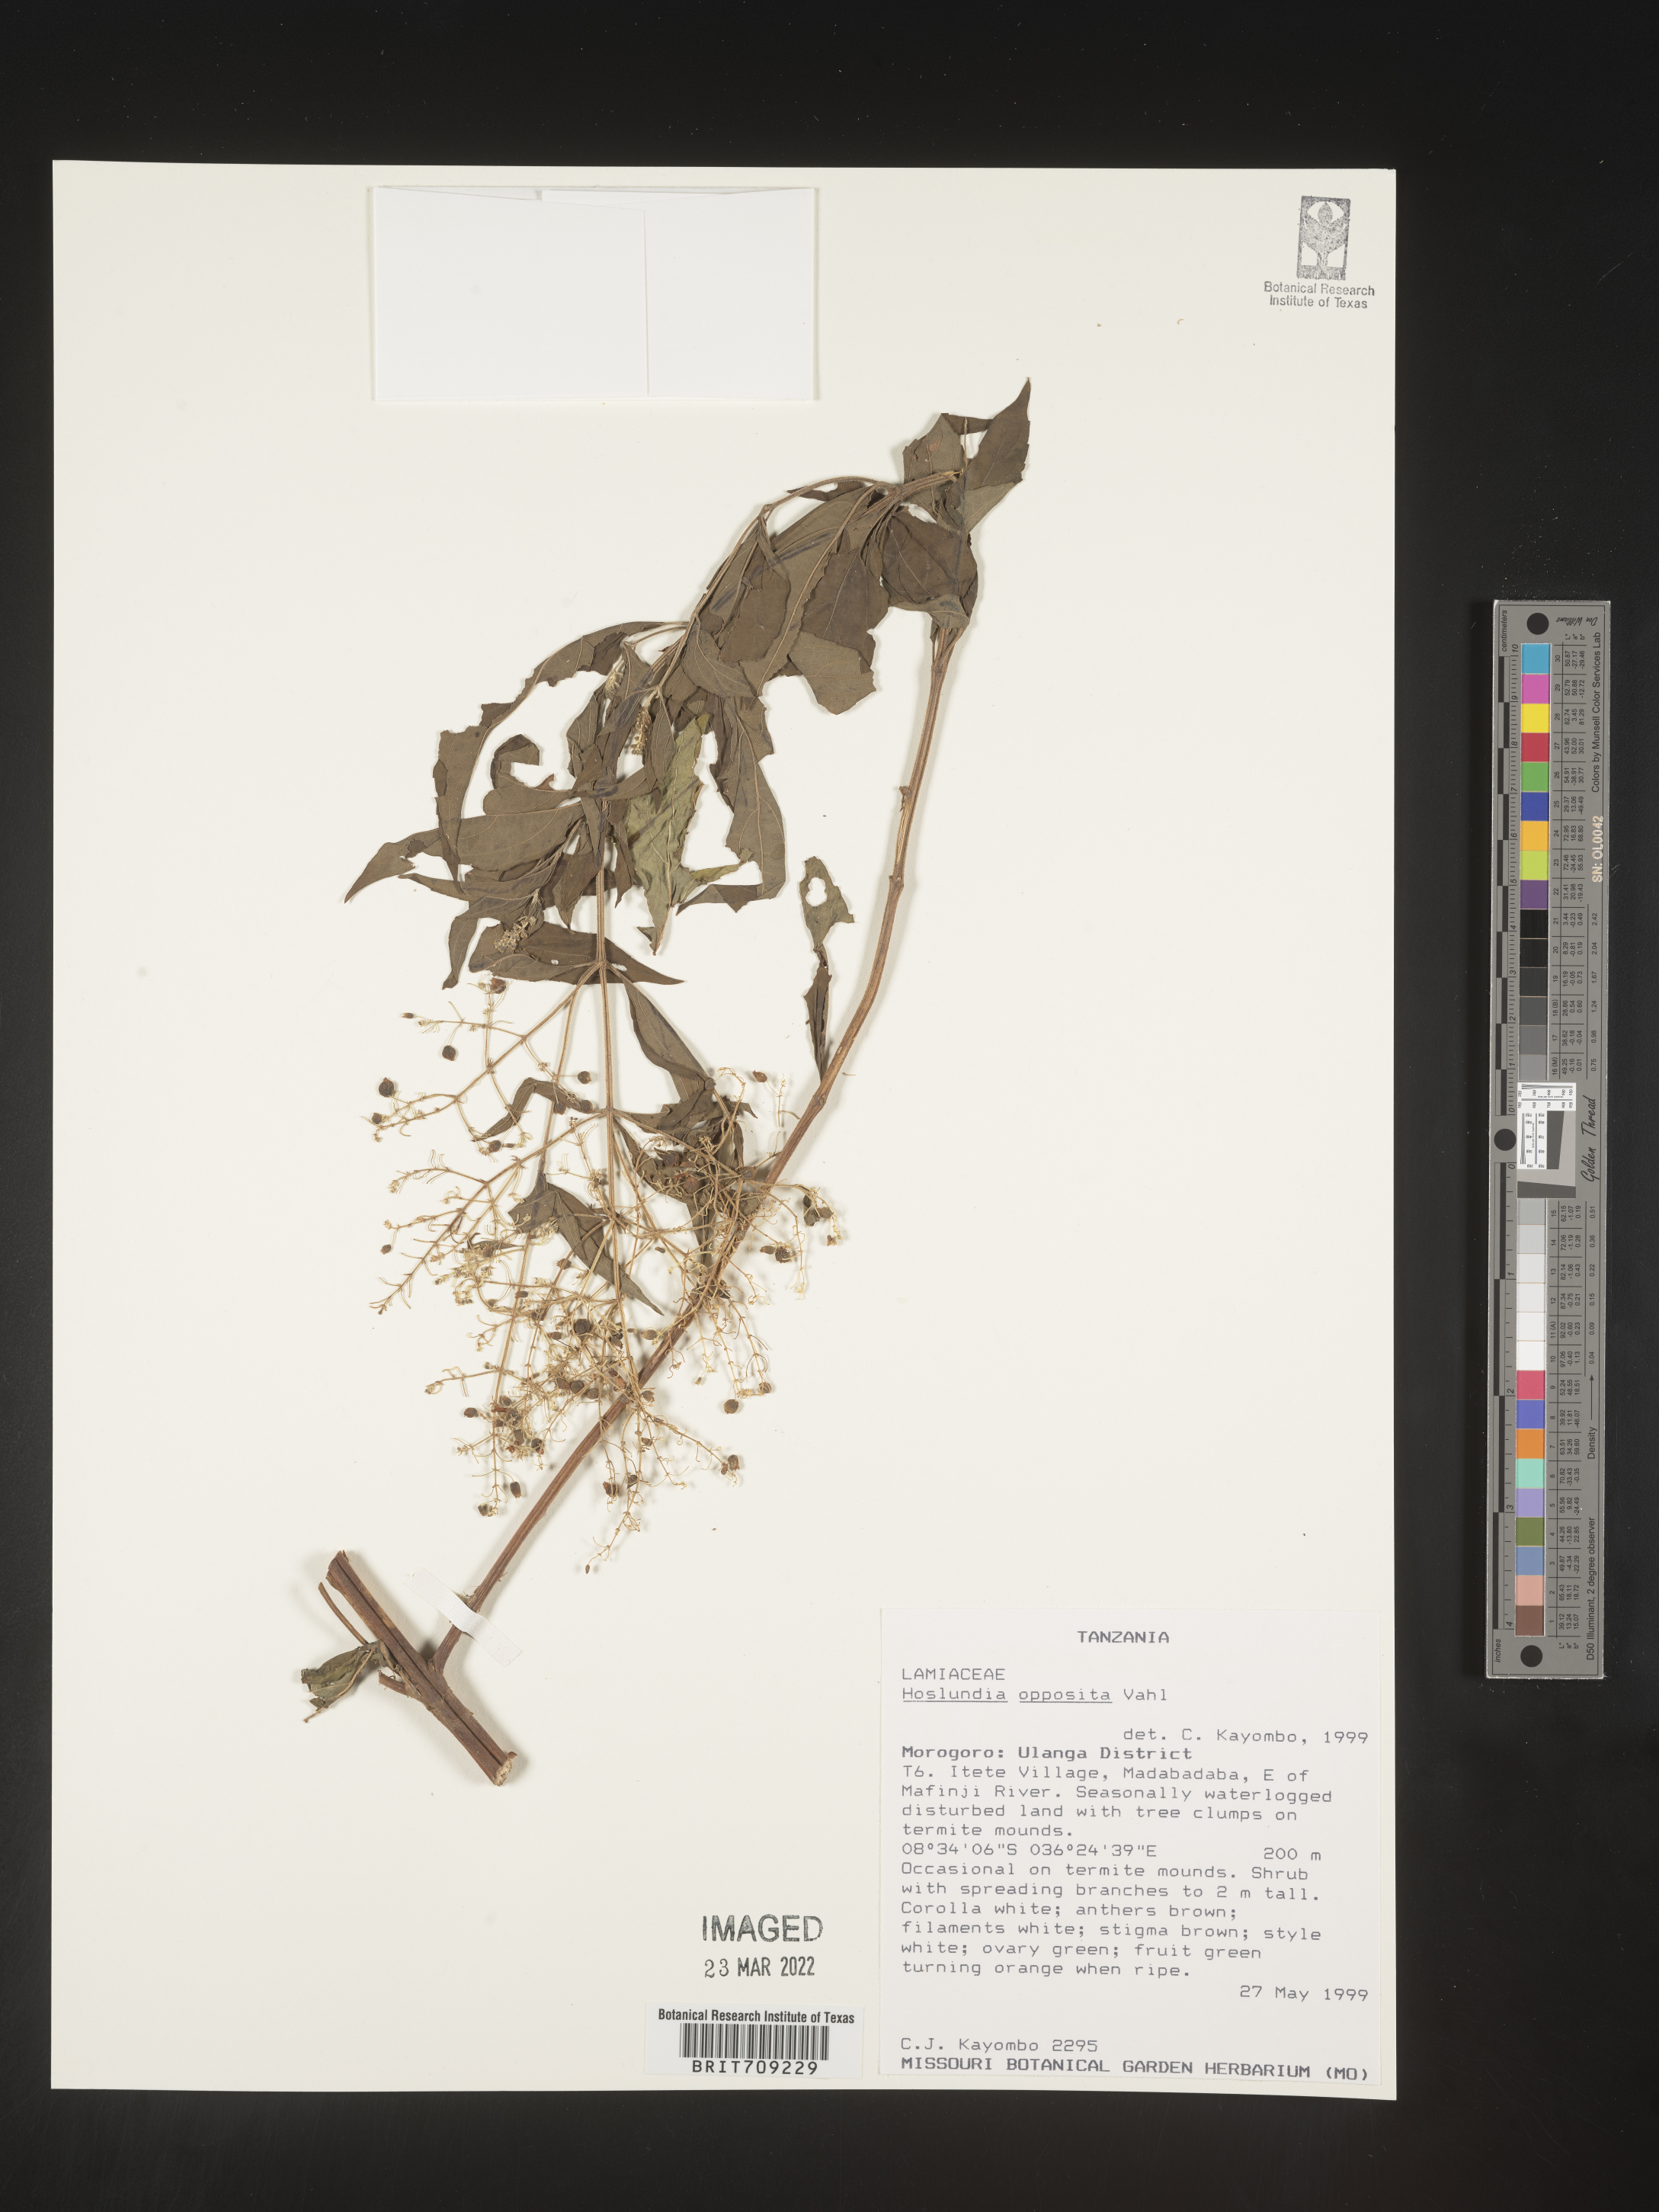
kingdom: Plantae
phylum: Tracheophyta
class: Magnoliopsida
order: Lamiales
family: Lamiaceae
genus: Hoslundia
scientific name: Hoslundia opposita
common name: Kamyuye
